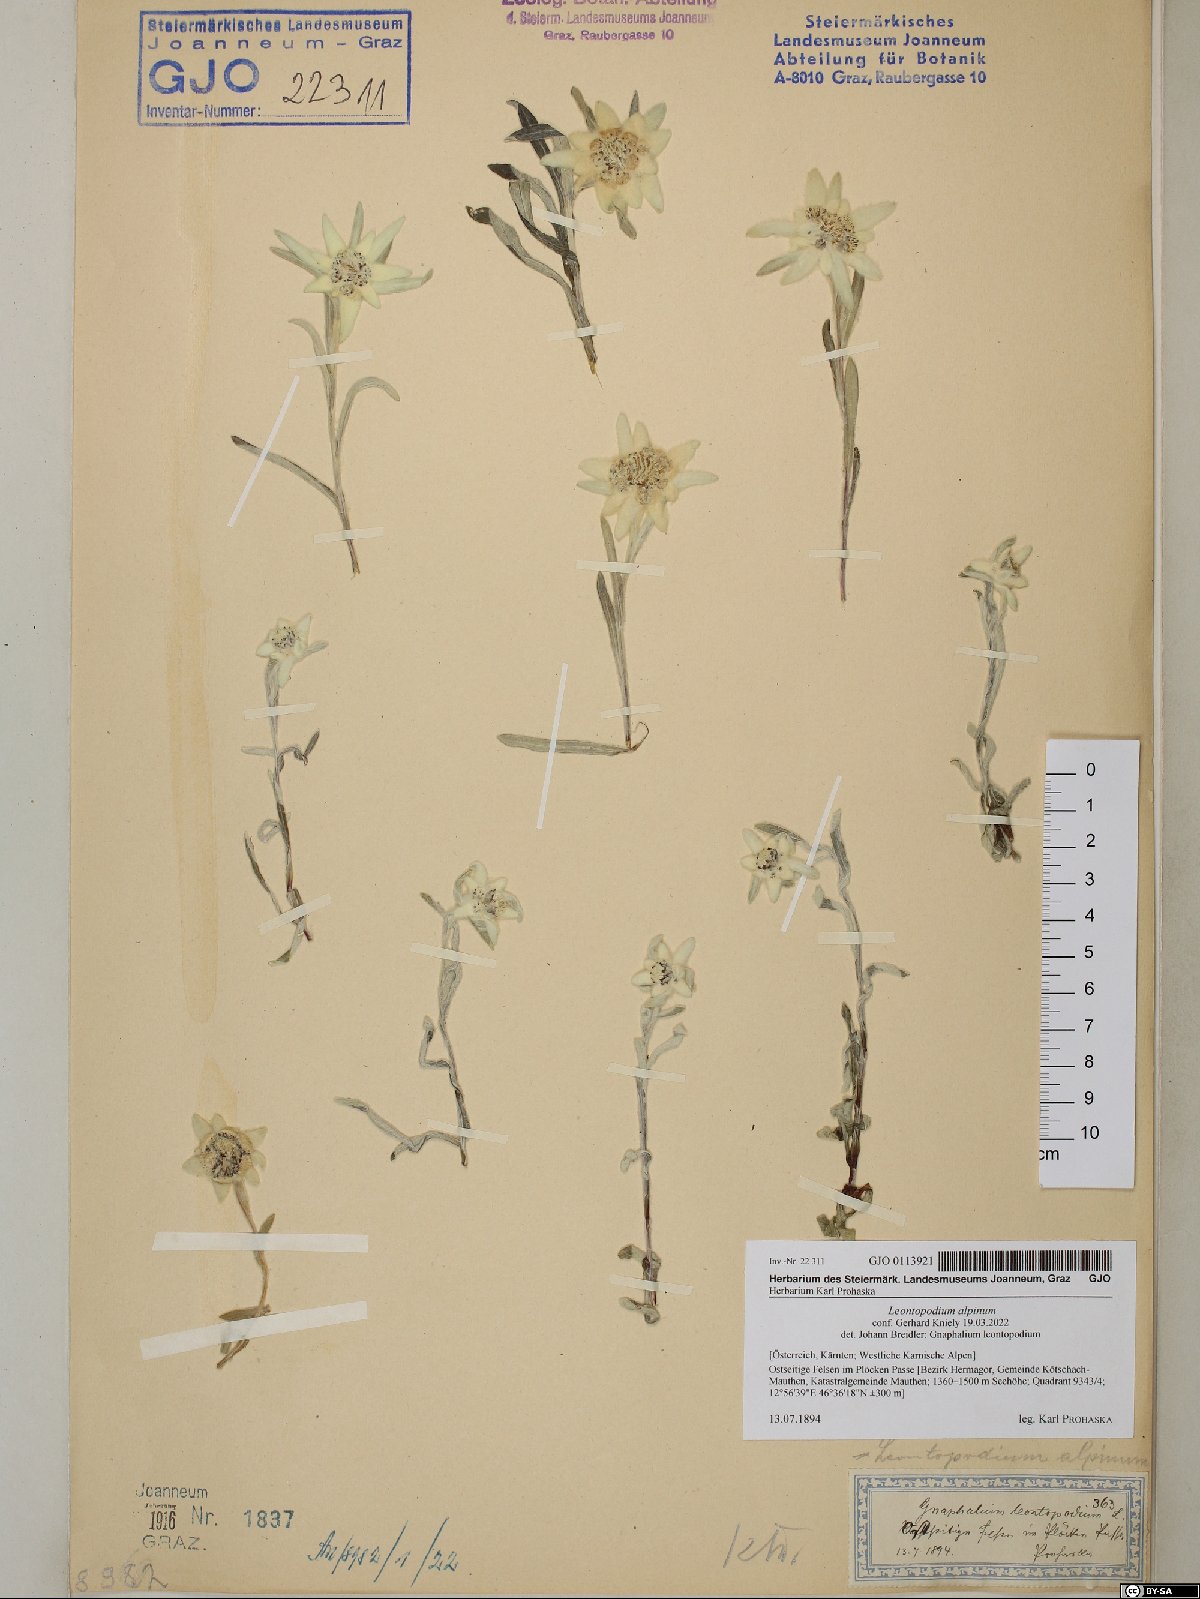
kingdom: Plantae
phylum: Tracheophyta
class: Magnoliopsida
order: Asterales
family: Asteraceae
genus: Leontopodium
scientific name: Leontopodium nivale
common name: Edelweiss
